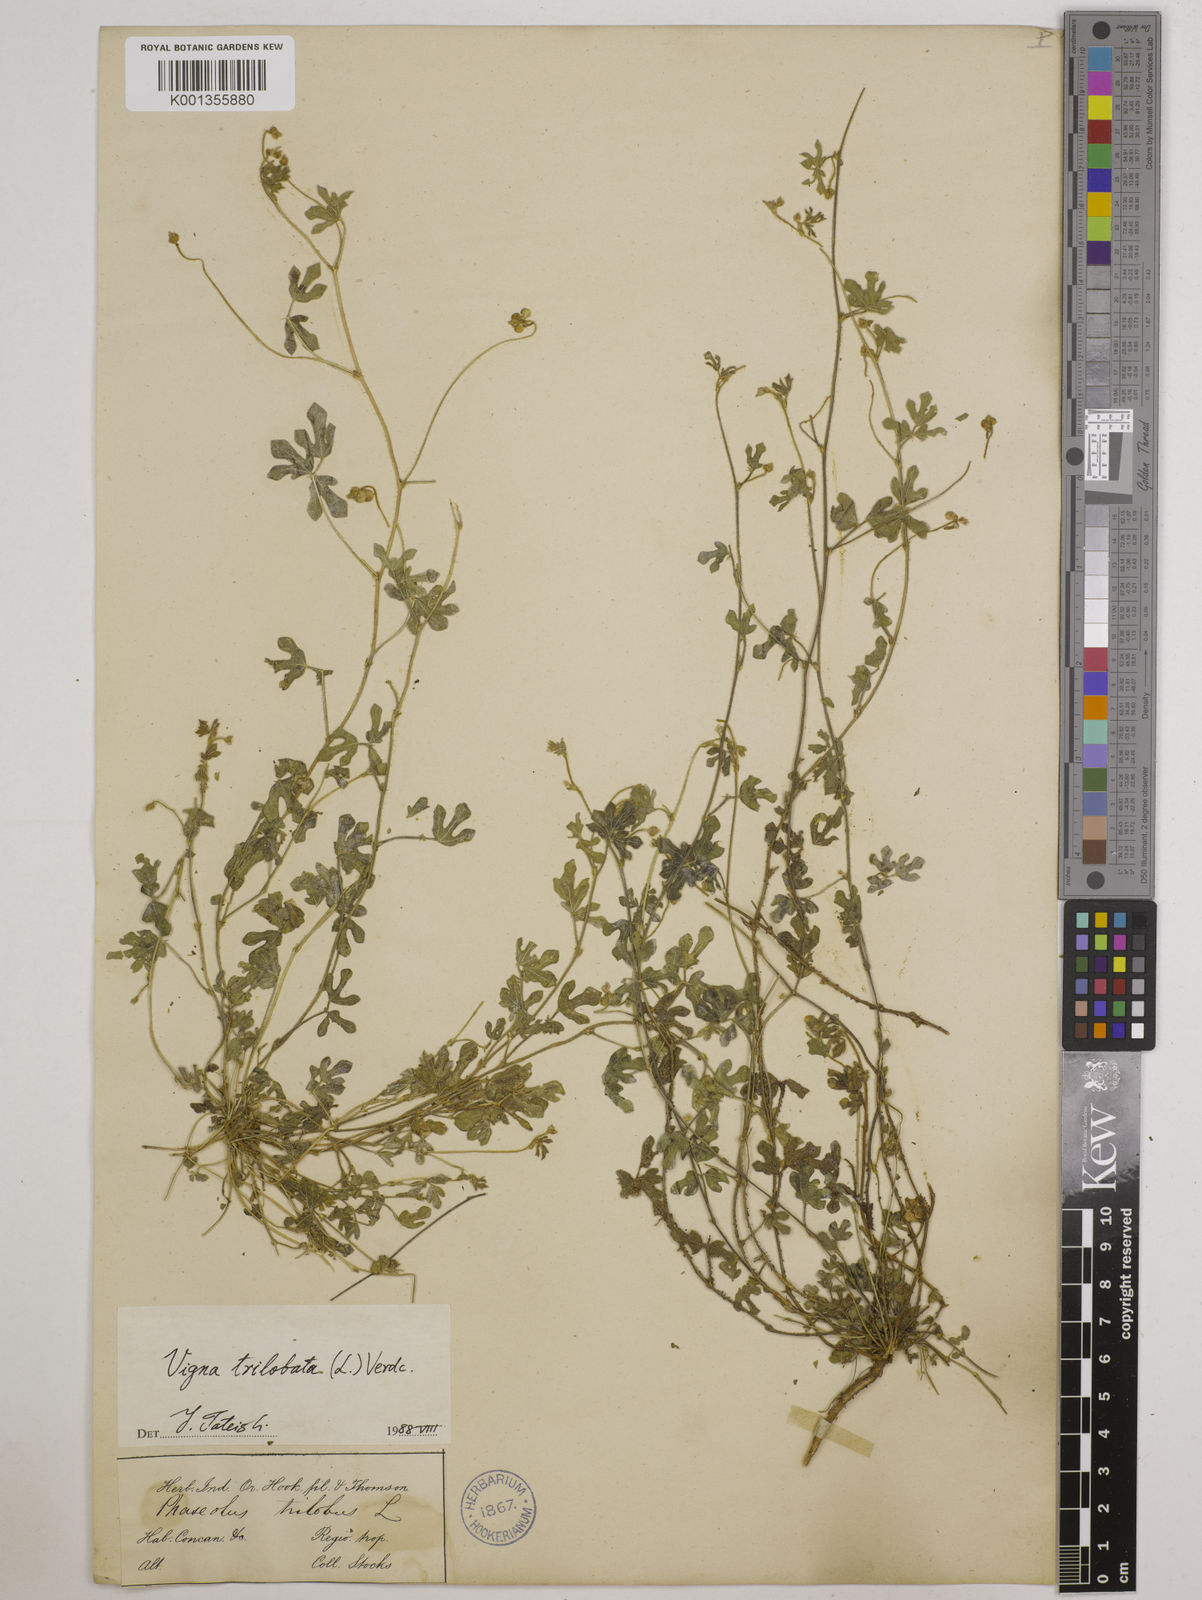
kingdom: Plantae
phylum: Tracheophyta
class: Magnoliopsida
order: Fabales
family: Fabaceae
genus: Vigna
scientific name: Vigna trilobata
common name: Jungli-bean
